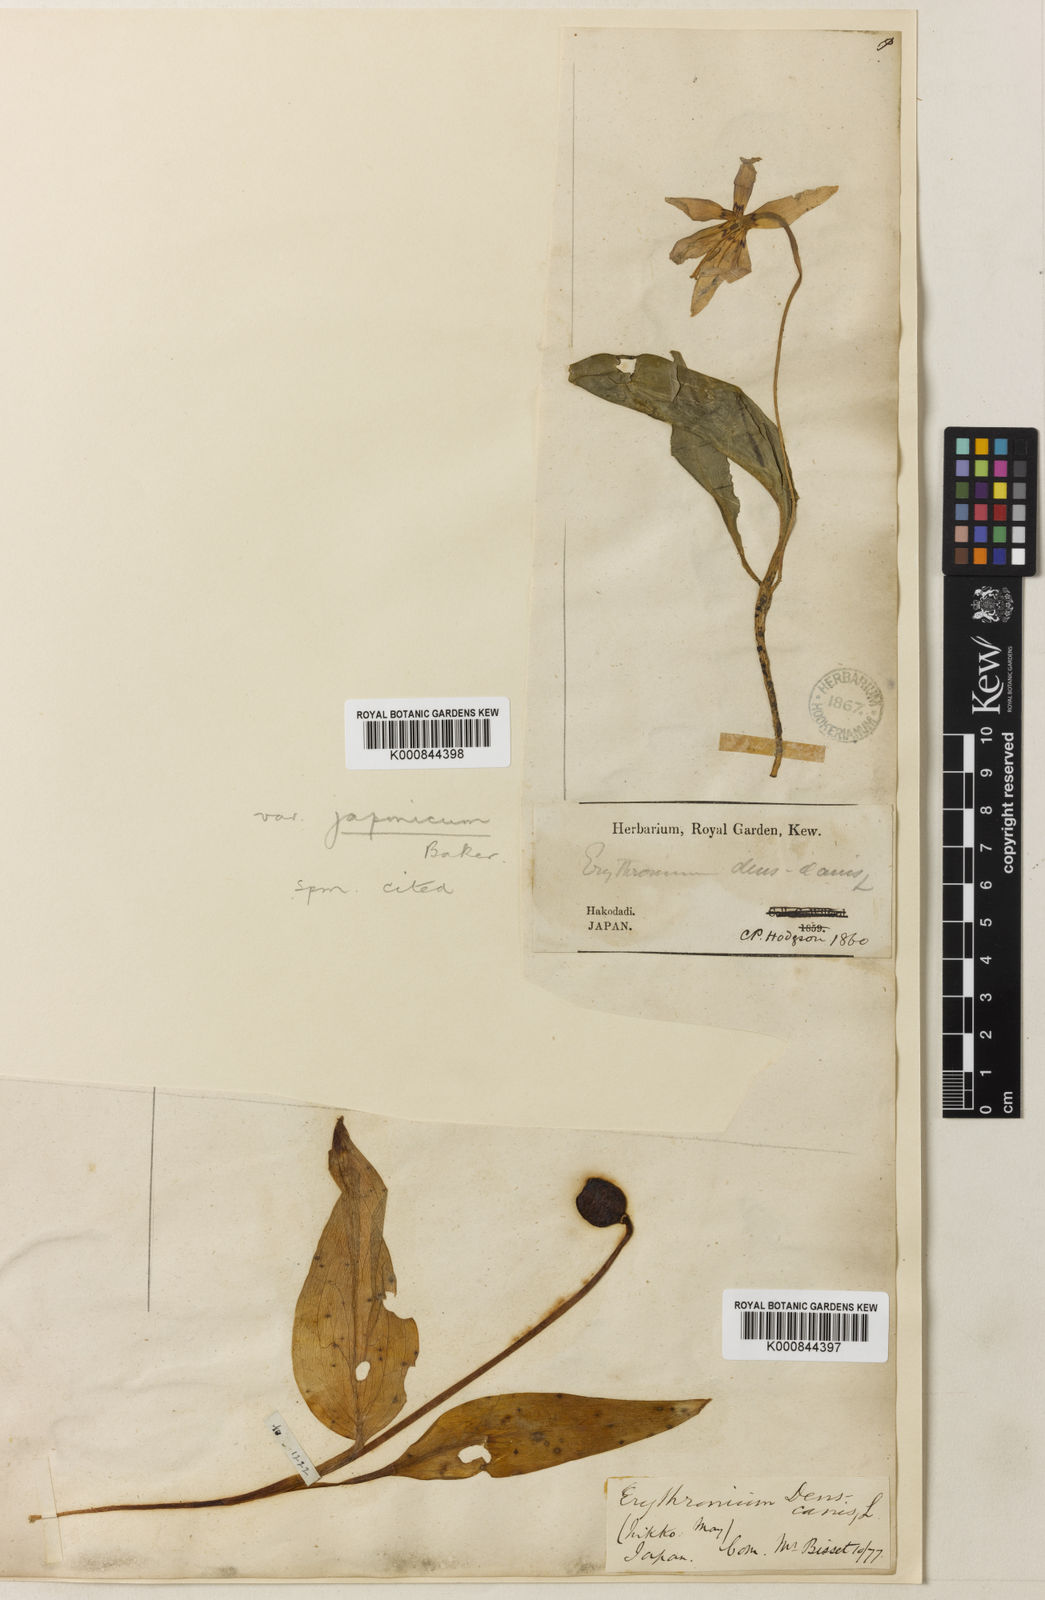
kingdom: Plantae
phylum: Tracheophyta
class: Liliopsida
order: Liliales
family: Liliaceae
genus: Erythronium
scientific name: Erythronium dens-canis
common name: Dog's-tooth-violet
